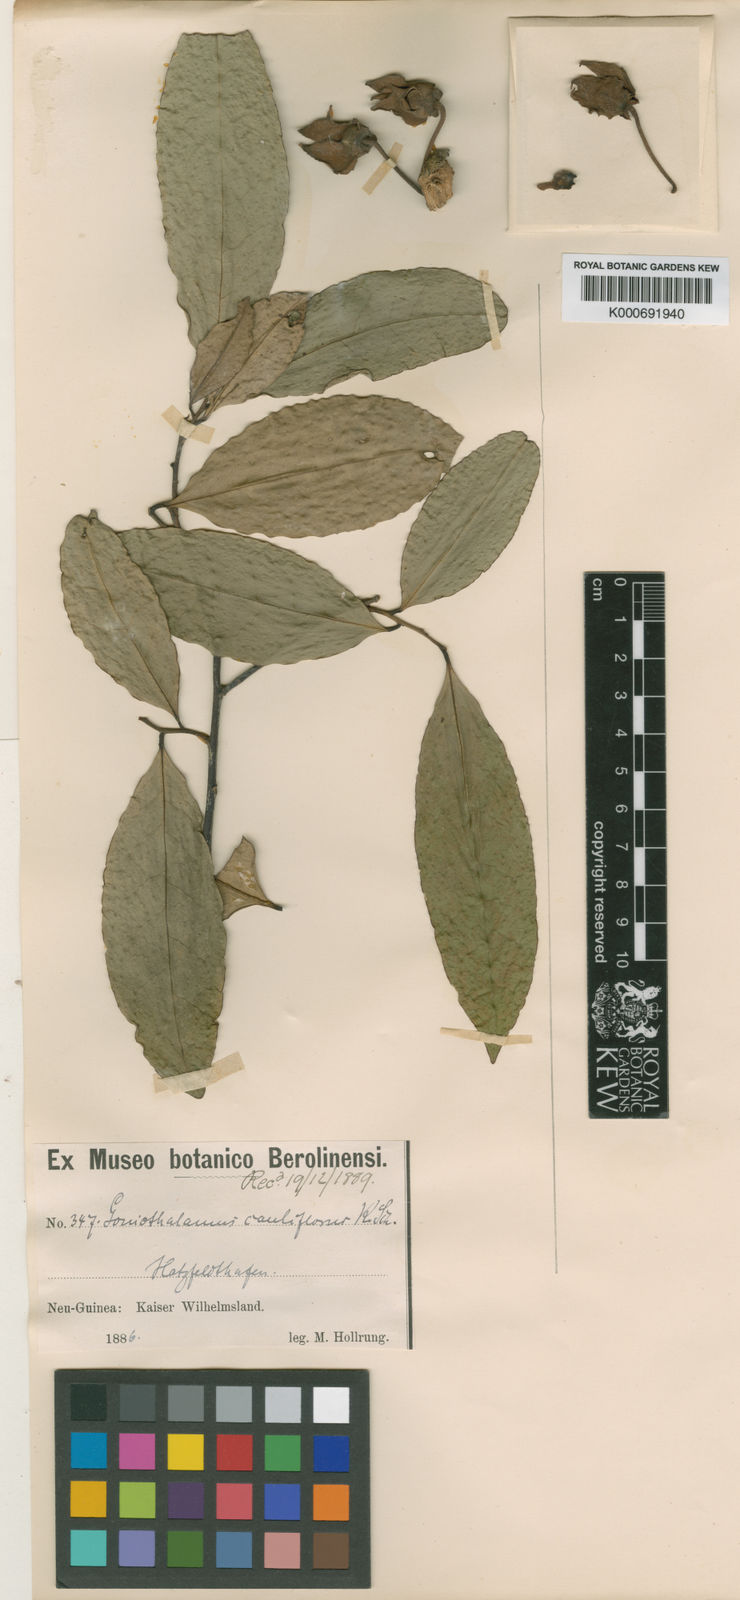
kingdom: Plantae
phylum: Tracheophyta
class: Magnoliopsida
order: Magnoliales
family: Annonaceae
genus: Goniothalamus
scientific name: Goniothalamus cauliflorus
